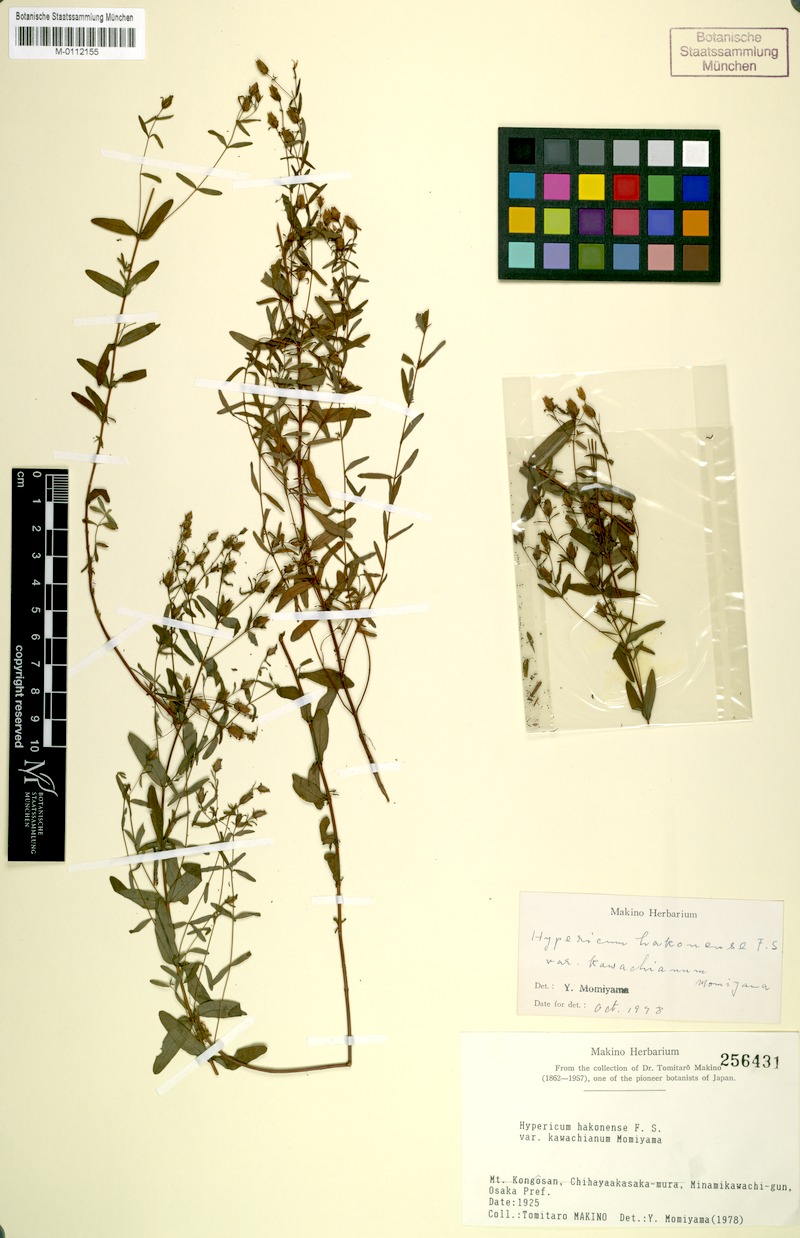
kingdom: Plantae
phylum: Tracheophyta
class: Magnoliopsida
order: Malpighiales
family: Hypericaceae
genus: Hypericum
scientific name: Hypericum hakonense
